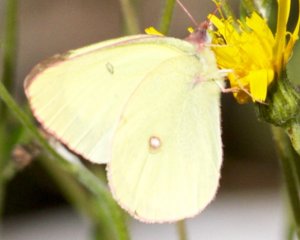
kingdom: Animalia
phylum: Arthropoda
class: Insecta
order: Lepidoptera
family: Pieridae
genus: Colias
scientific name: Colias philodice
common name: Clouded Sulphur
